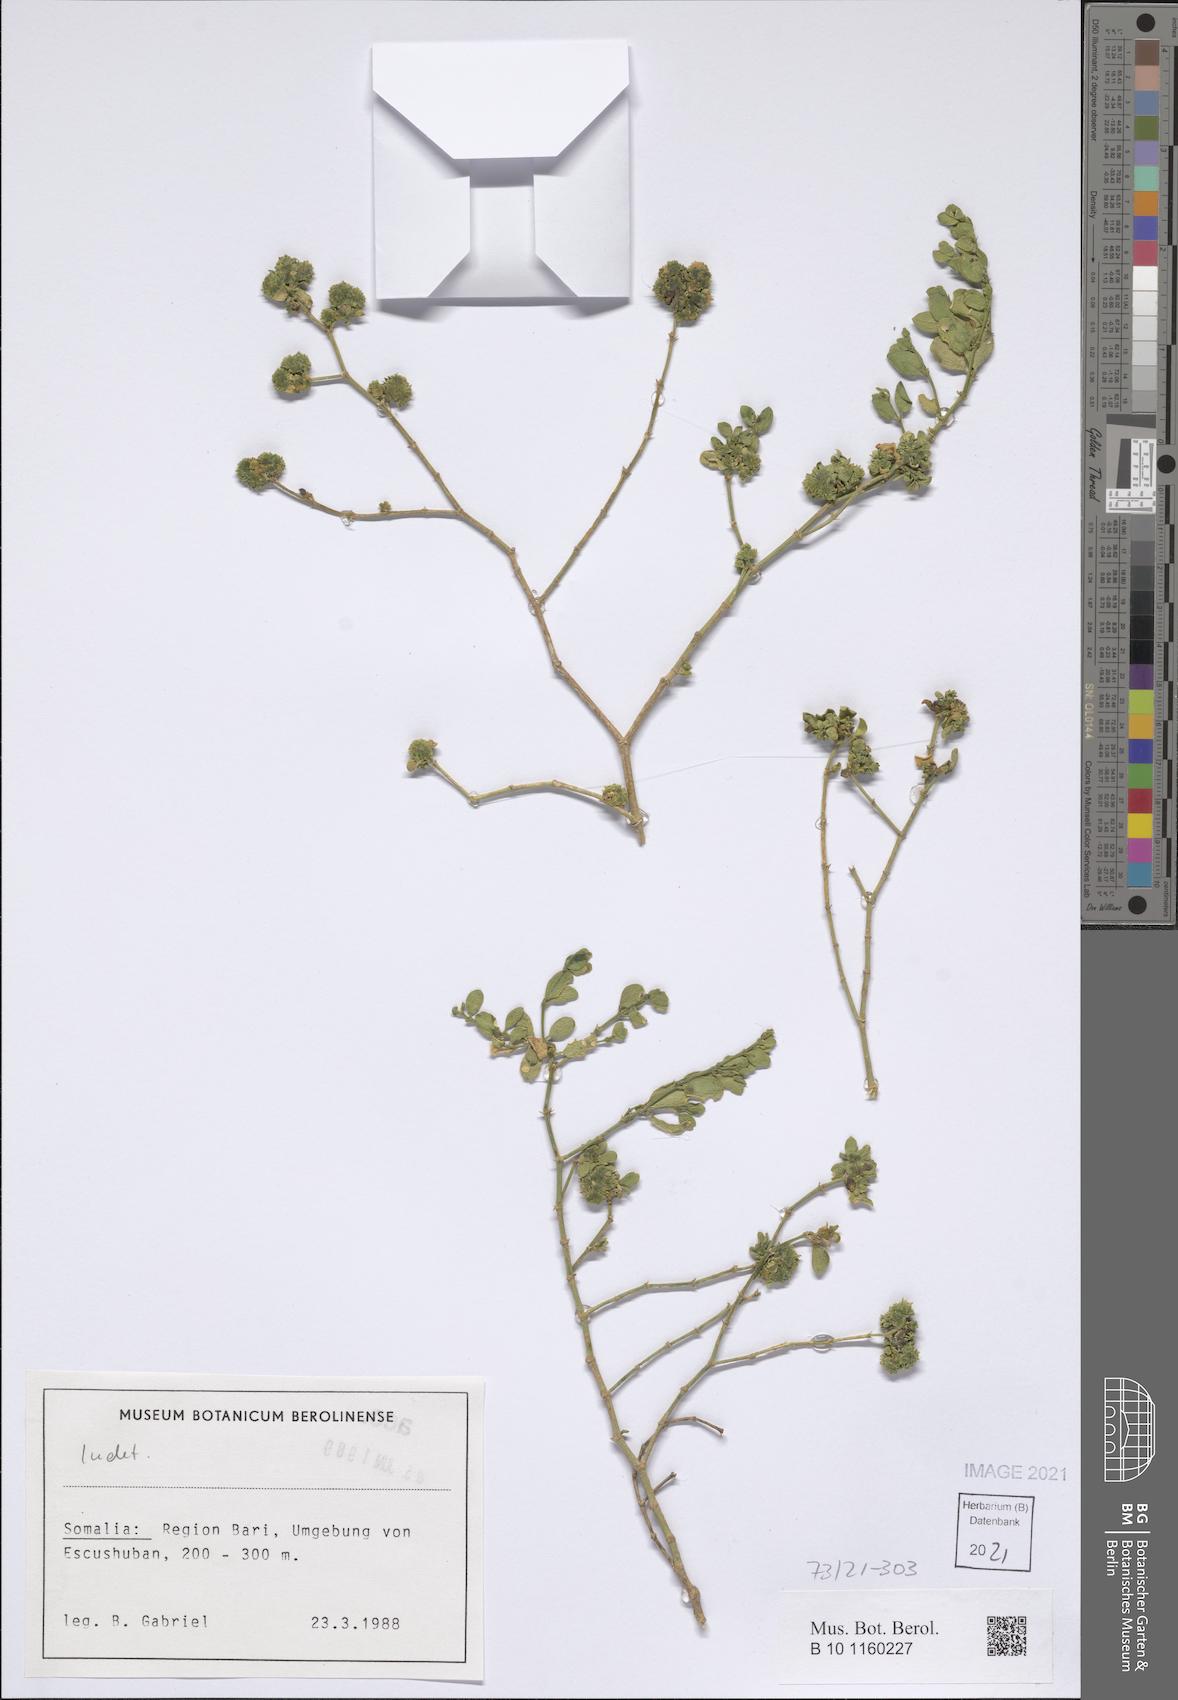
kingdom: Plantae
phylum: Tracheophyta
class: Magnoliopsida
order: Zygophyllales
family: Zygophyllaceae
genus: Fagonia
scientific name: Fagonia socotrana
